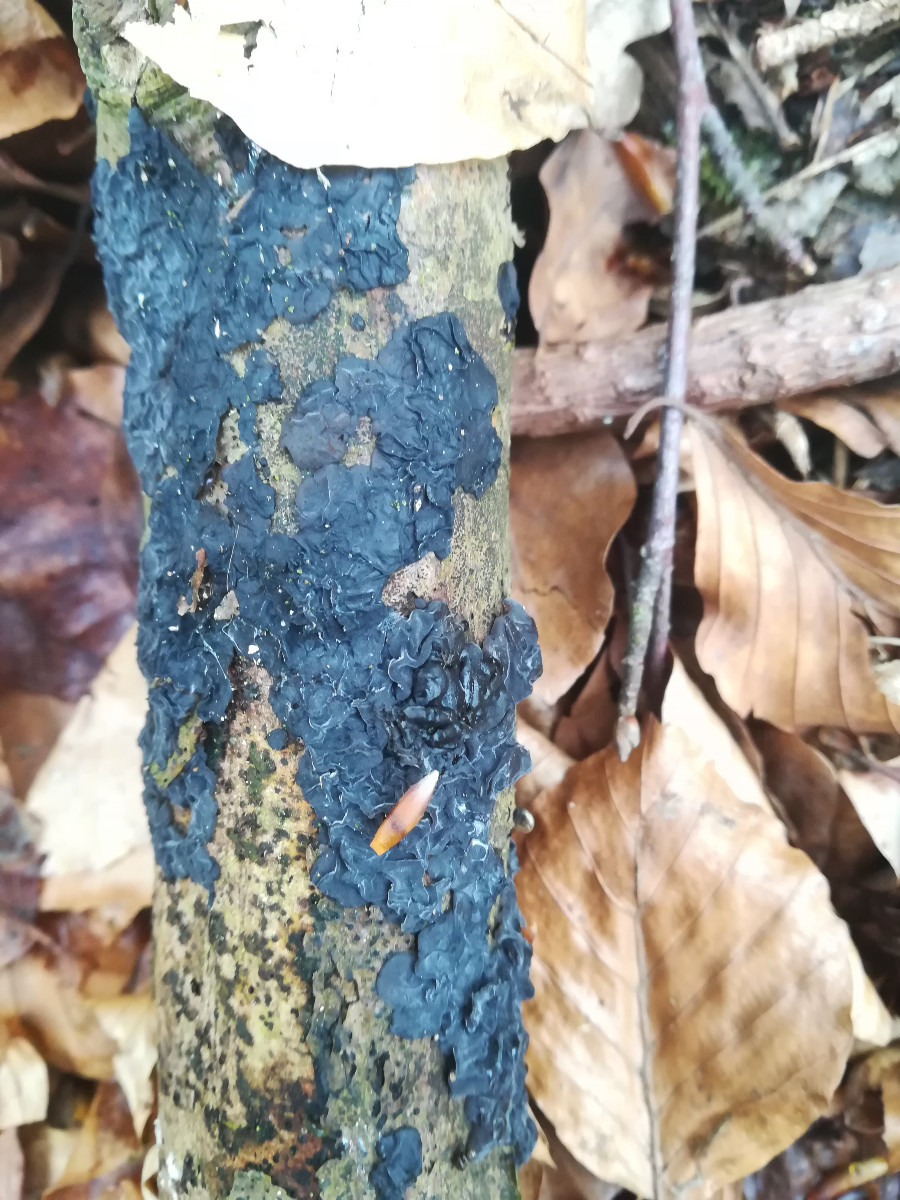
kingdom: Fungi
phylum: Basidiomycota
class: Agaricomycetes
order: Auriculariales
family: Auriculariaceae
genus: Exidia
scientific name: Exidia nigricans
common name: almindelig bævretop
